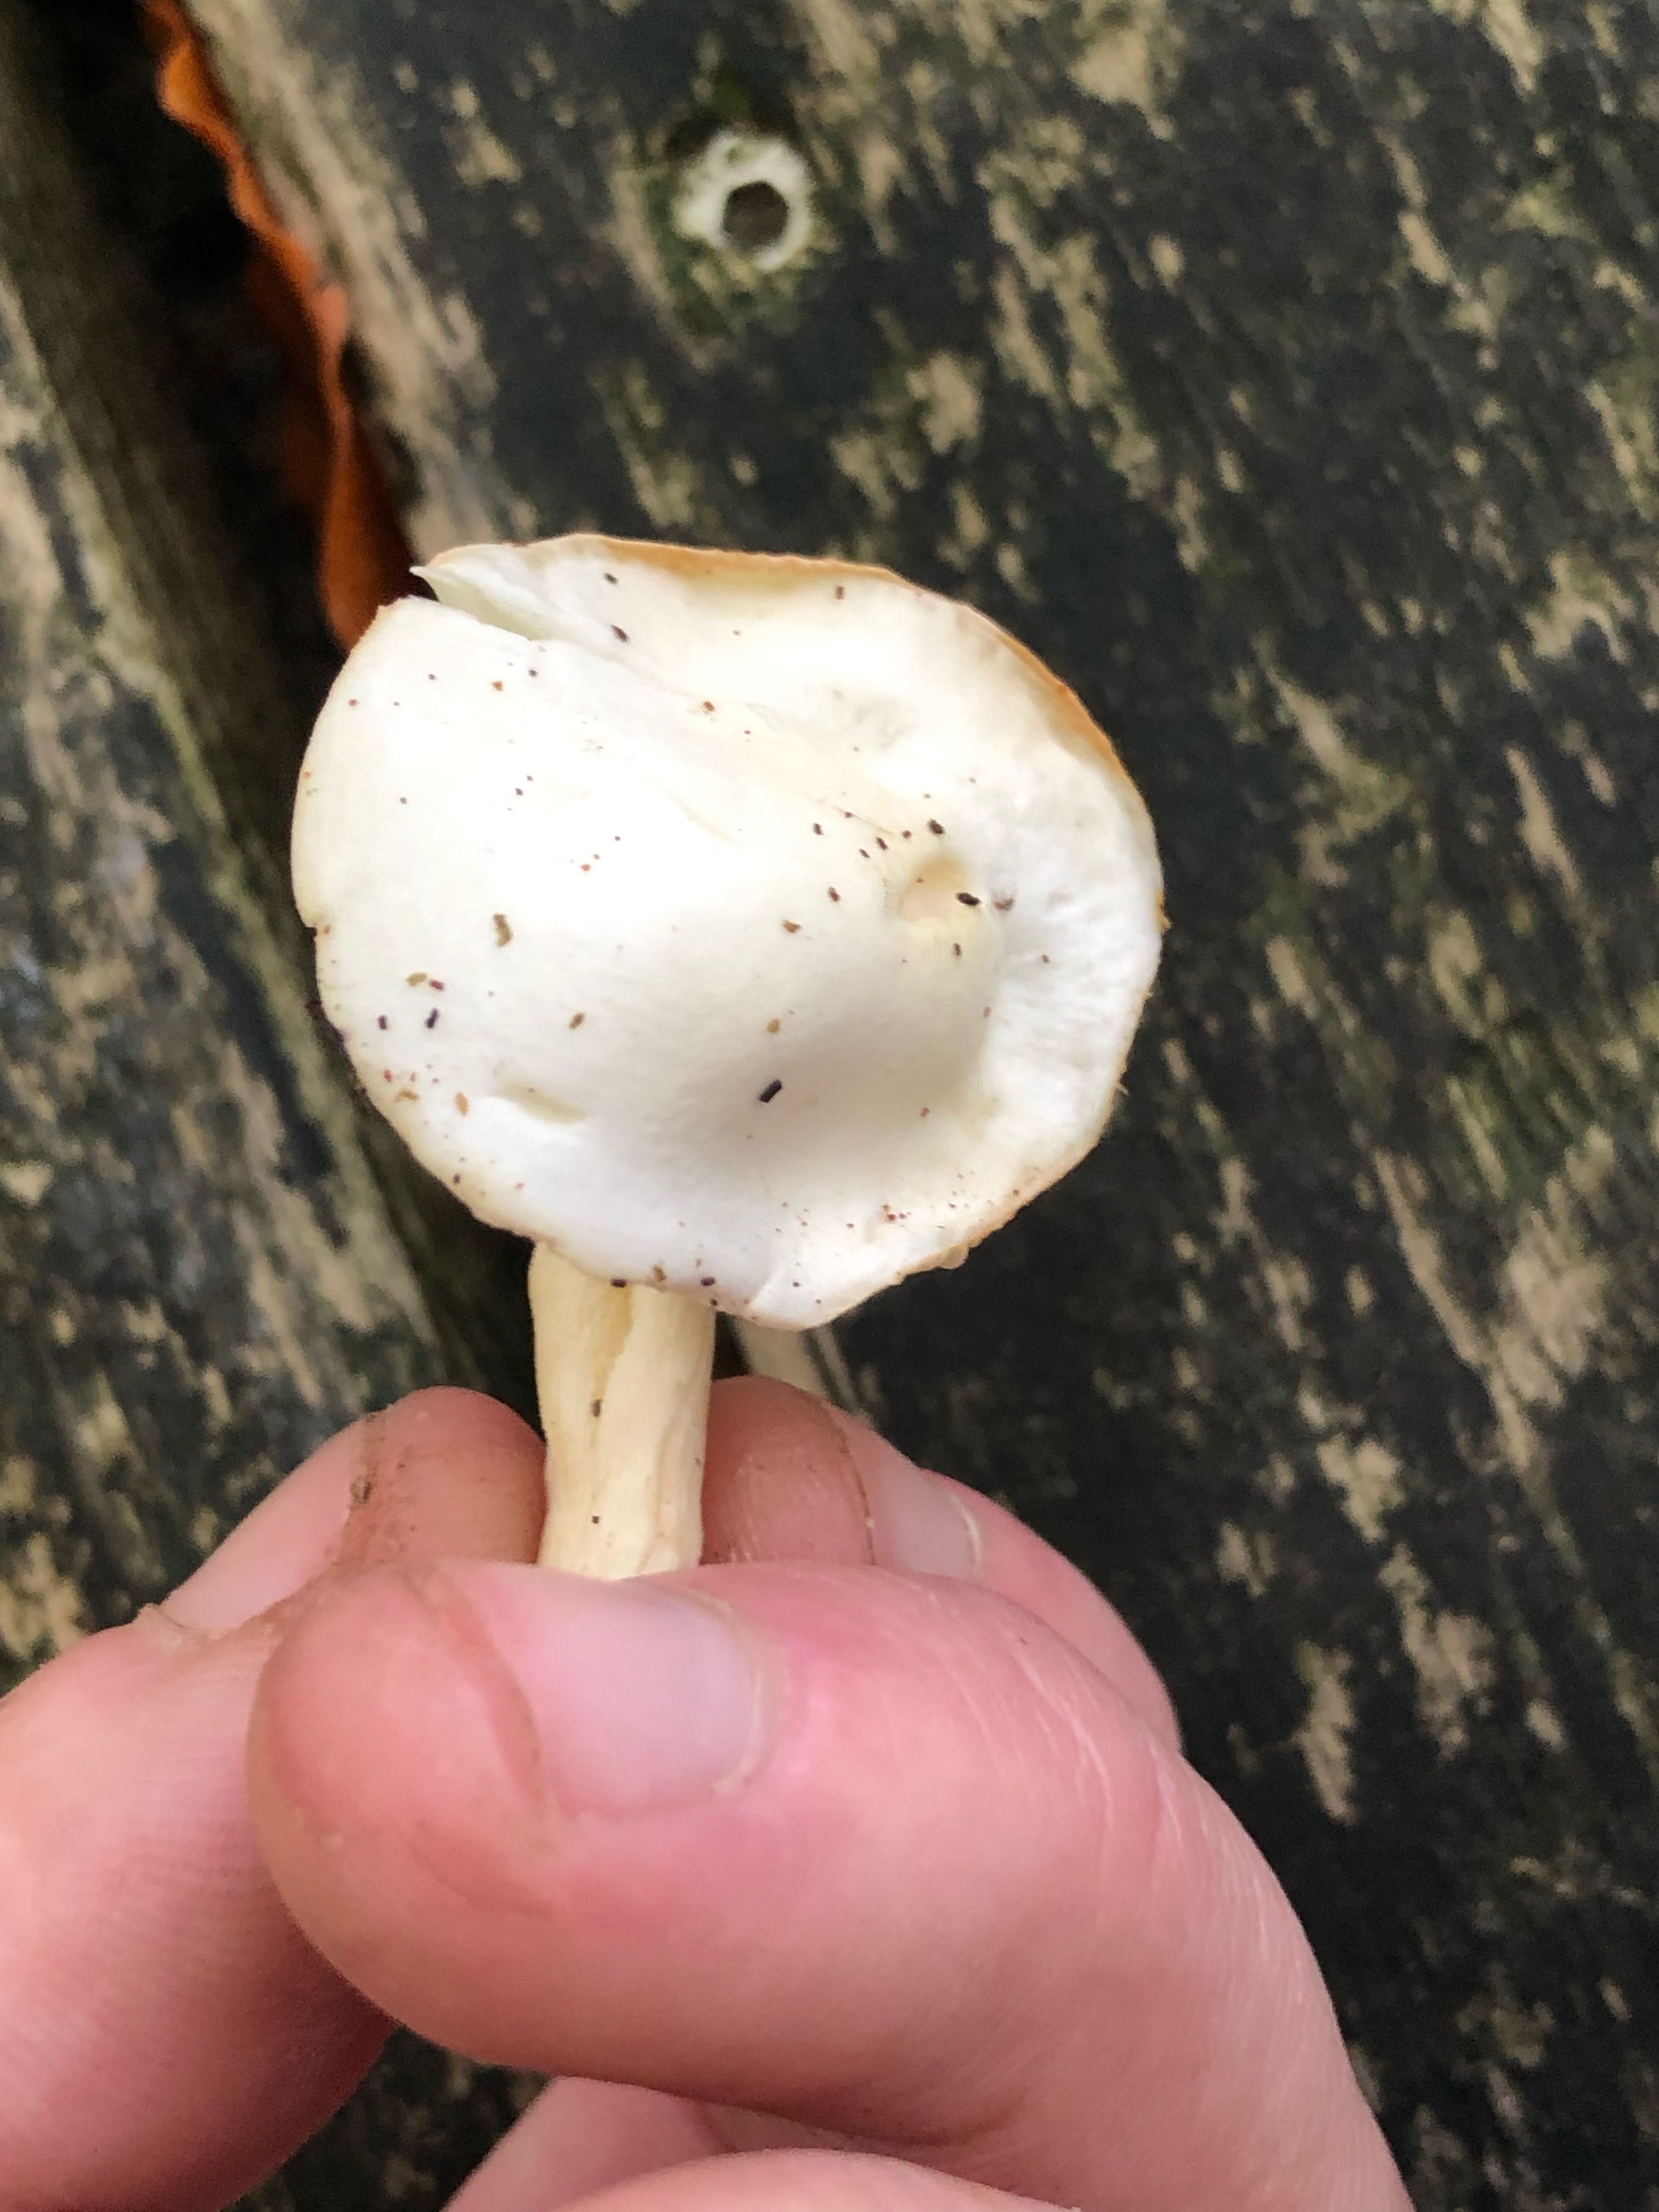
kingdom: Fungi
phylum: Basidiomycota
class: Agaricomycetes
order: Agaricales
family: Hygrophoraceae
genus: Hygrophorus
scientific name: Hygrophorus discoxanthus
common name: ildelugtende sneglehat
